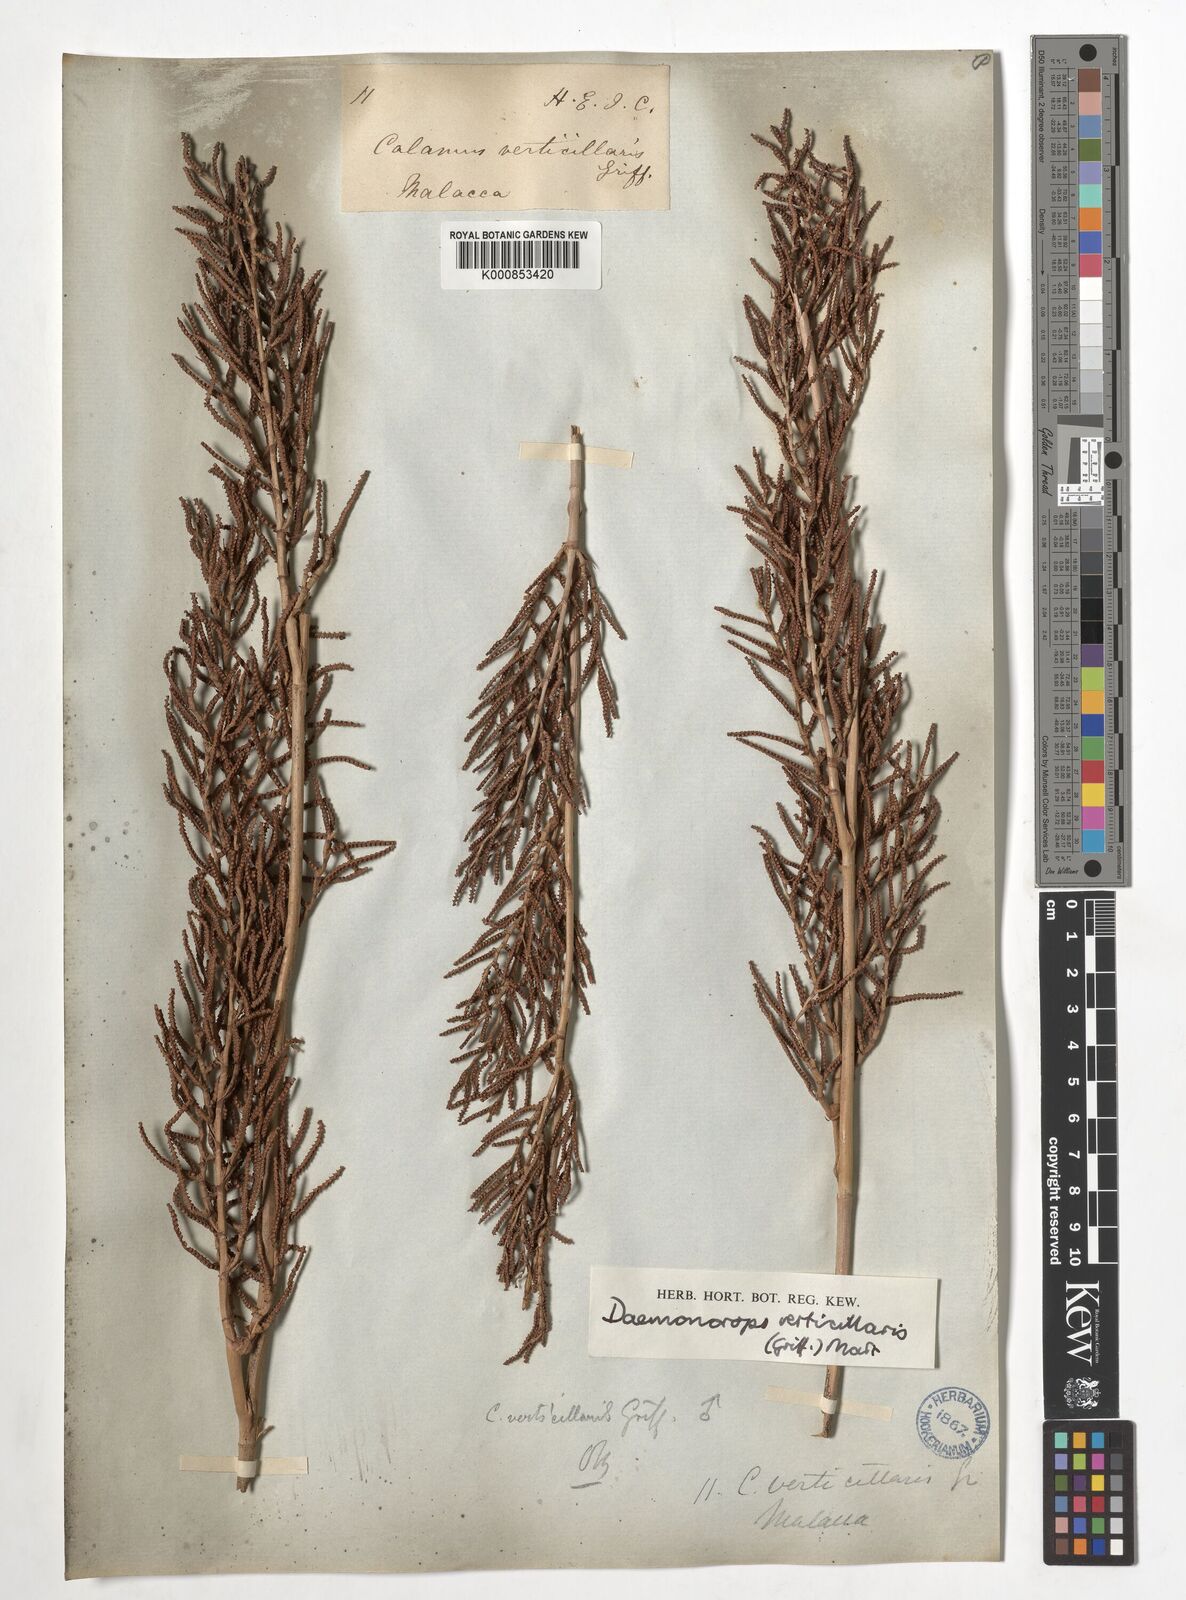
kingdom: Plantae
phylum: Tracheophyta
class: Liliopsida
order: Arecales
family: Arecaceae
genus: Calamus
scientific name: Calamus verticillaris
